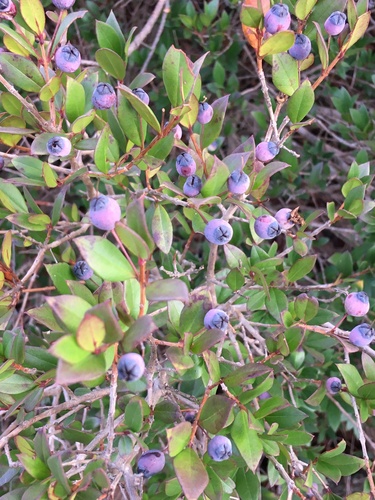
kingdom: Plantae
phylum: Tracheophyta
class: Magnoliopsida
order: Myrtales
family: Myrtaceae
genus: Myrtus
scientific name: Myrtus communis
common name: Myrtle
